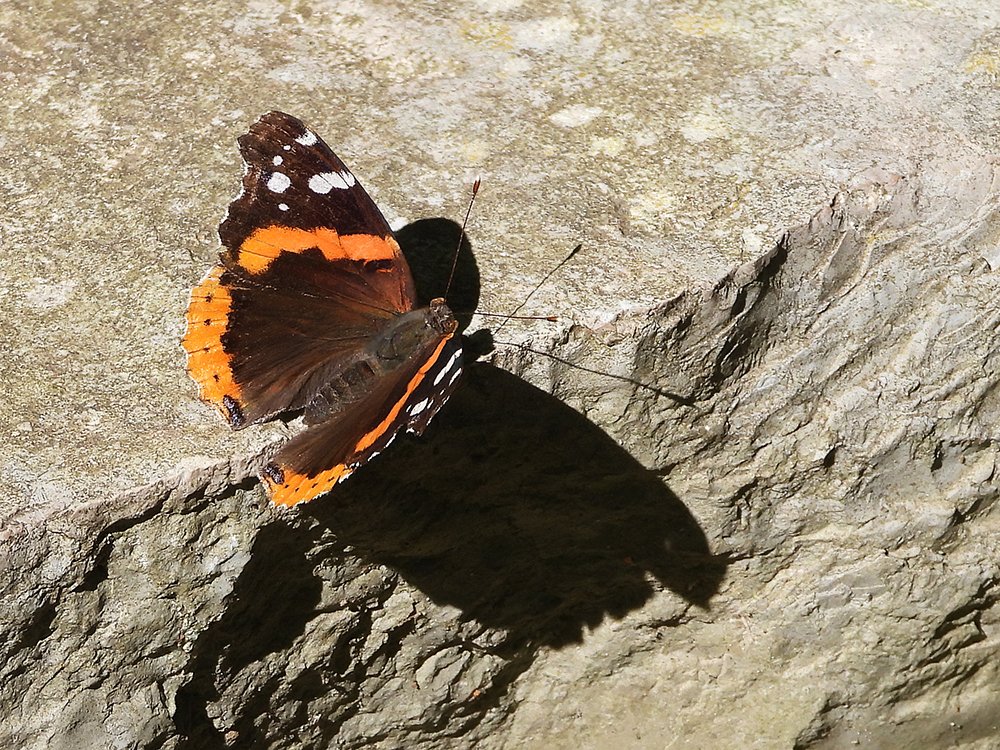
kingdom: Animalia
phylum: Arthropoda
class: Insecta
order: Lepidoptera
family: Nymphalidae
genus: Vanessa
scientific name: Vanessa atalanta
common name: Red Admiral
